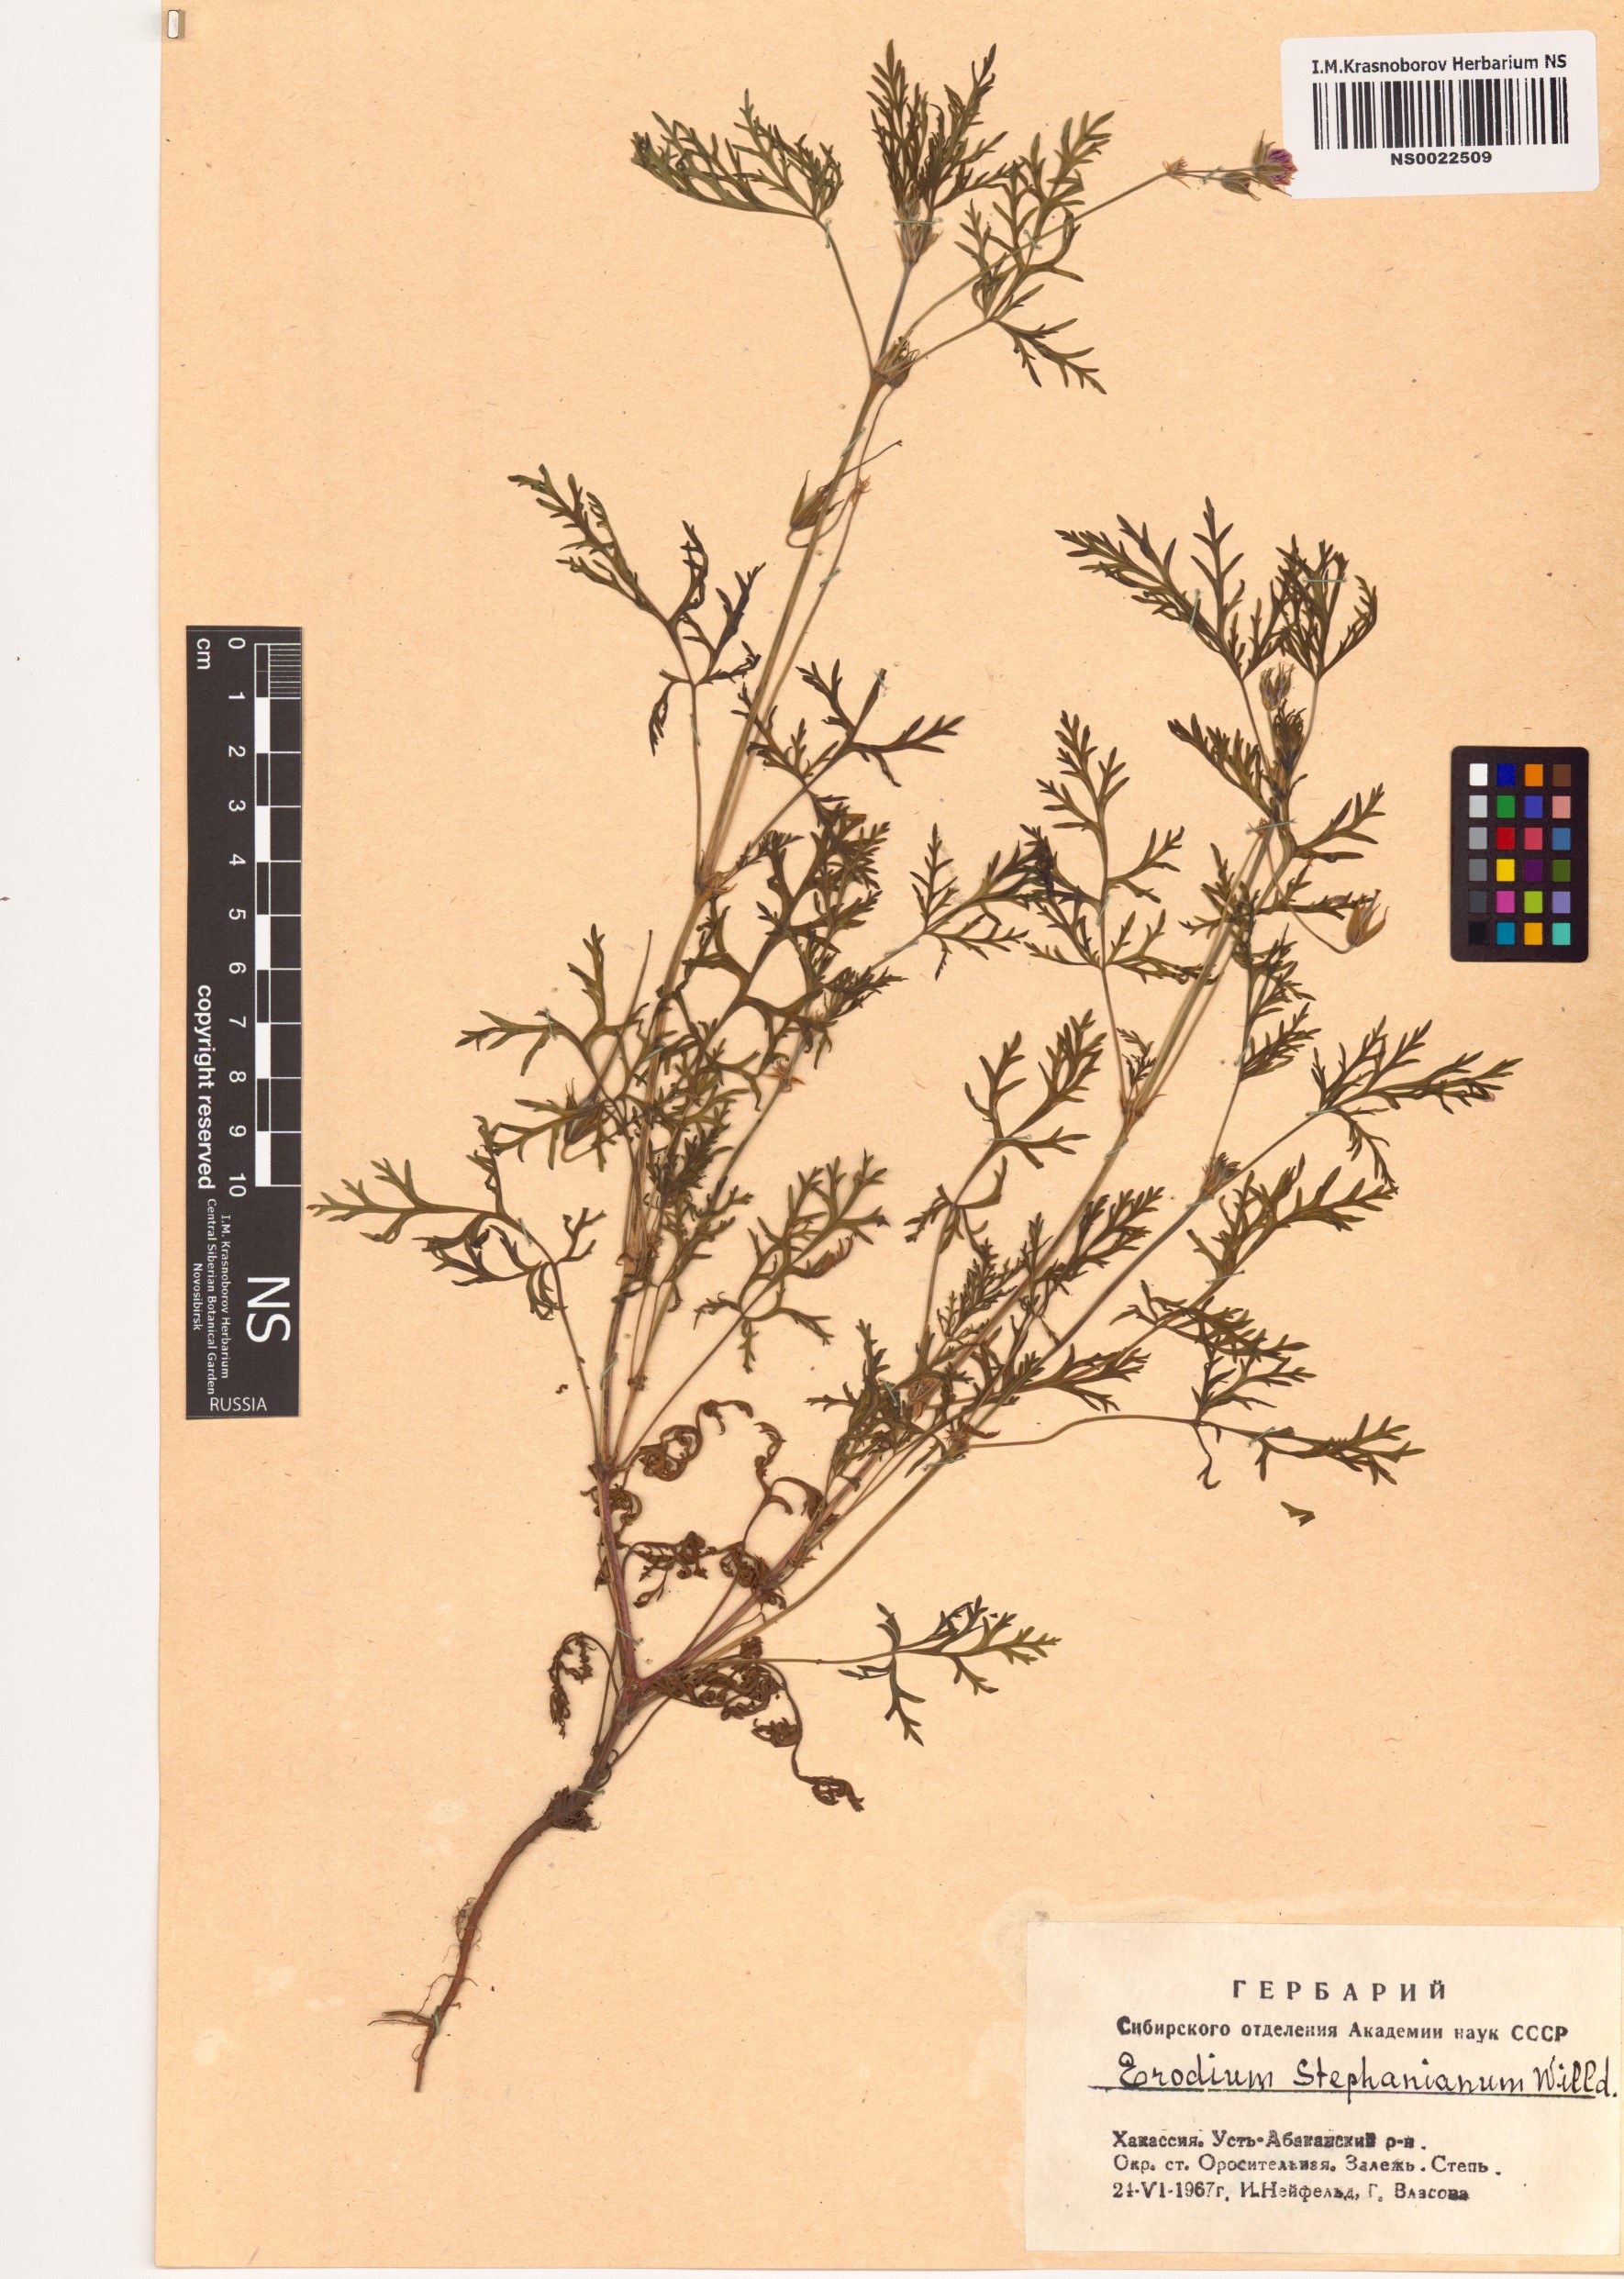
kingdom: Plantae
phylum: Tracheophyta
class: Magnoliopsida
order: Geraniales
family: Geraniaceae
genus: Erodium
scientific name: Erodium stephanianum
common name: Stephen's stork's bill
